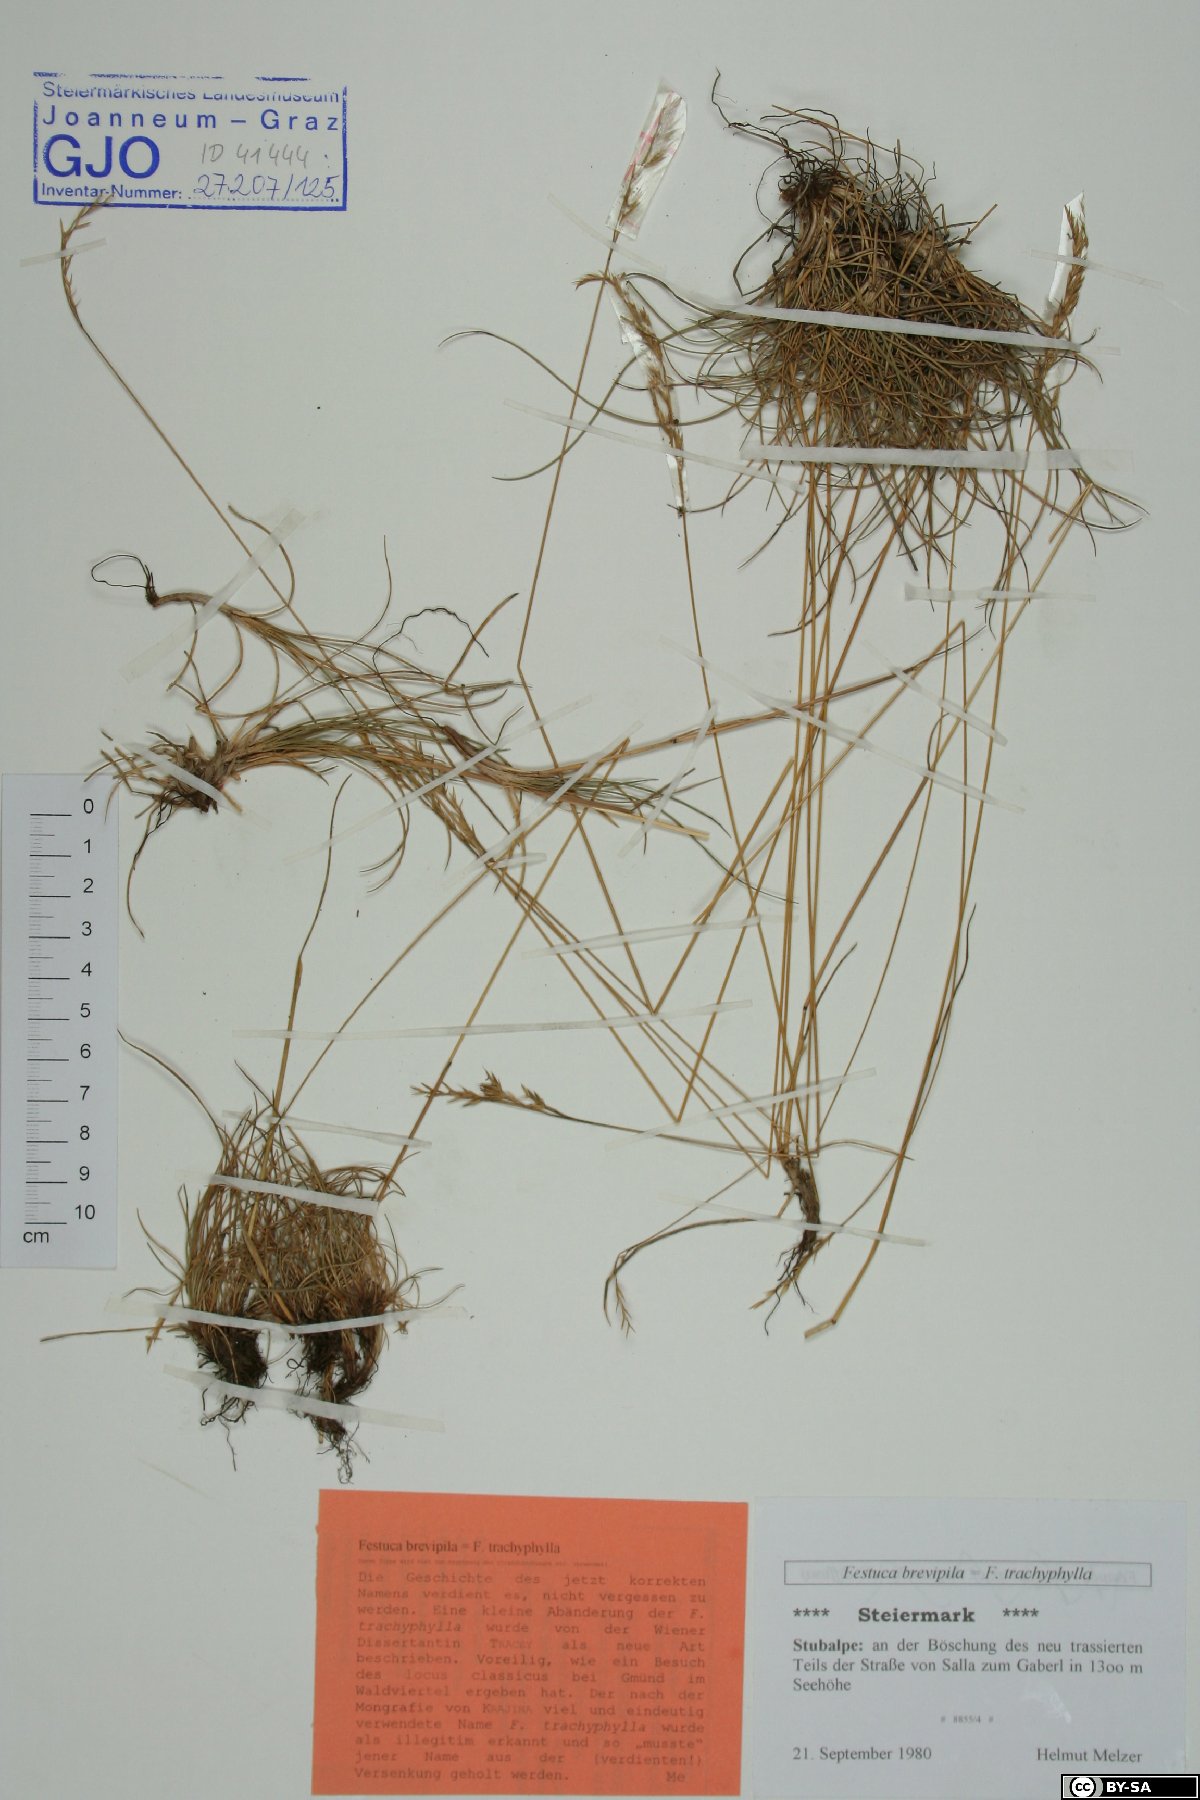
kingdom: Plantae
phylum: Tracheophyta
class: Liliopsida
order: Poales
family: Poaceae
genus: Festuca
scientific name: Festuca trachyphylla
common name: Hard fescue
